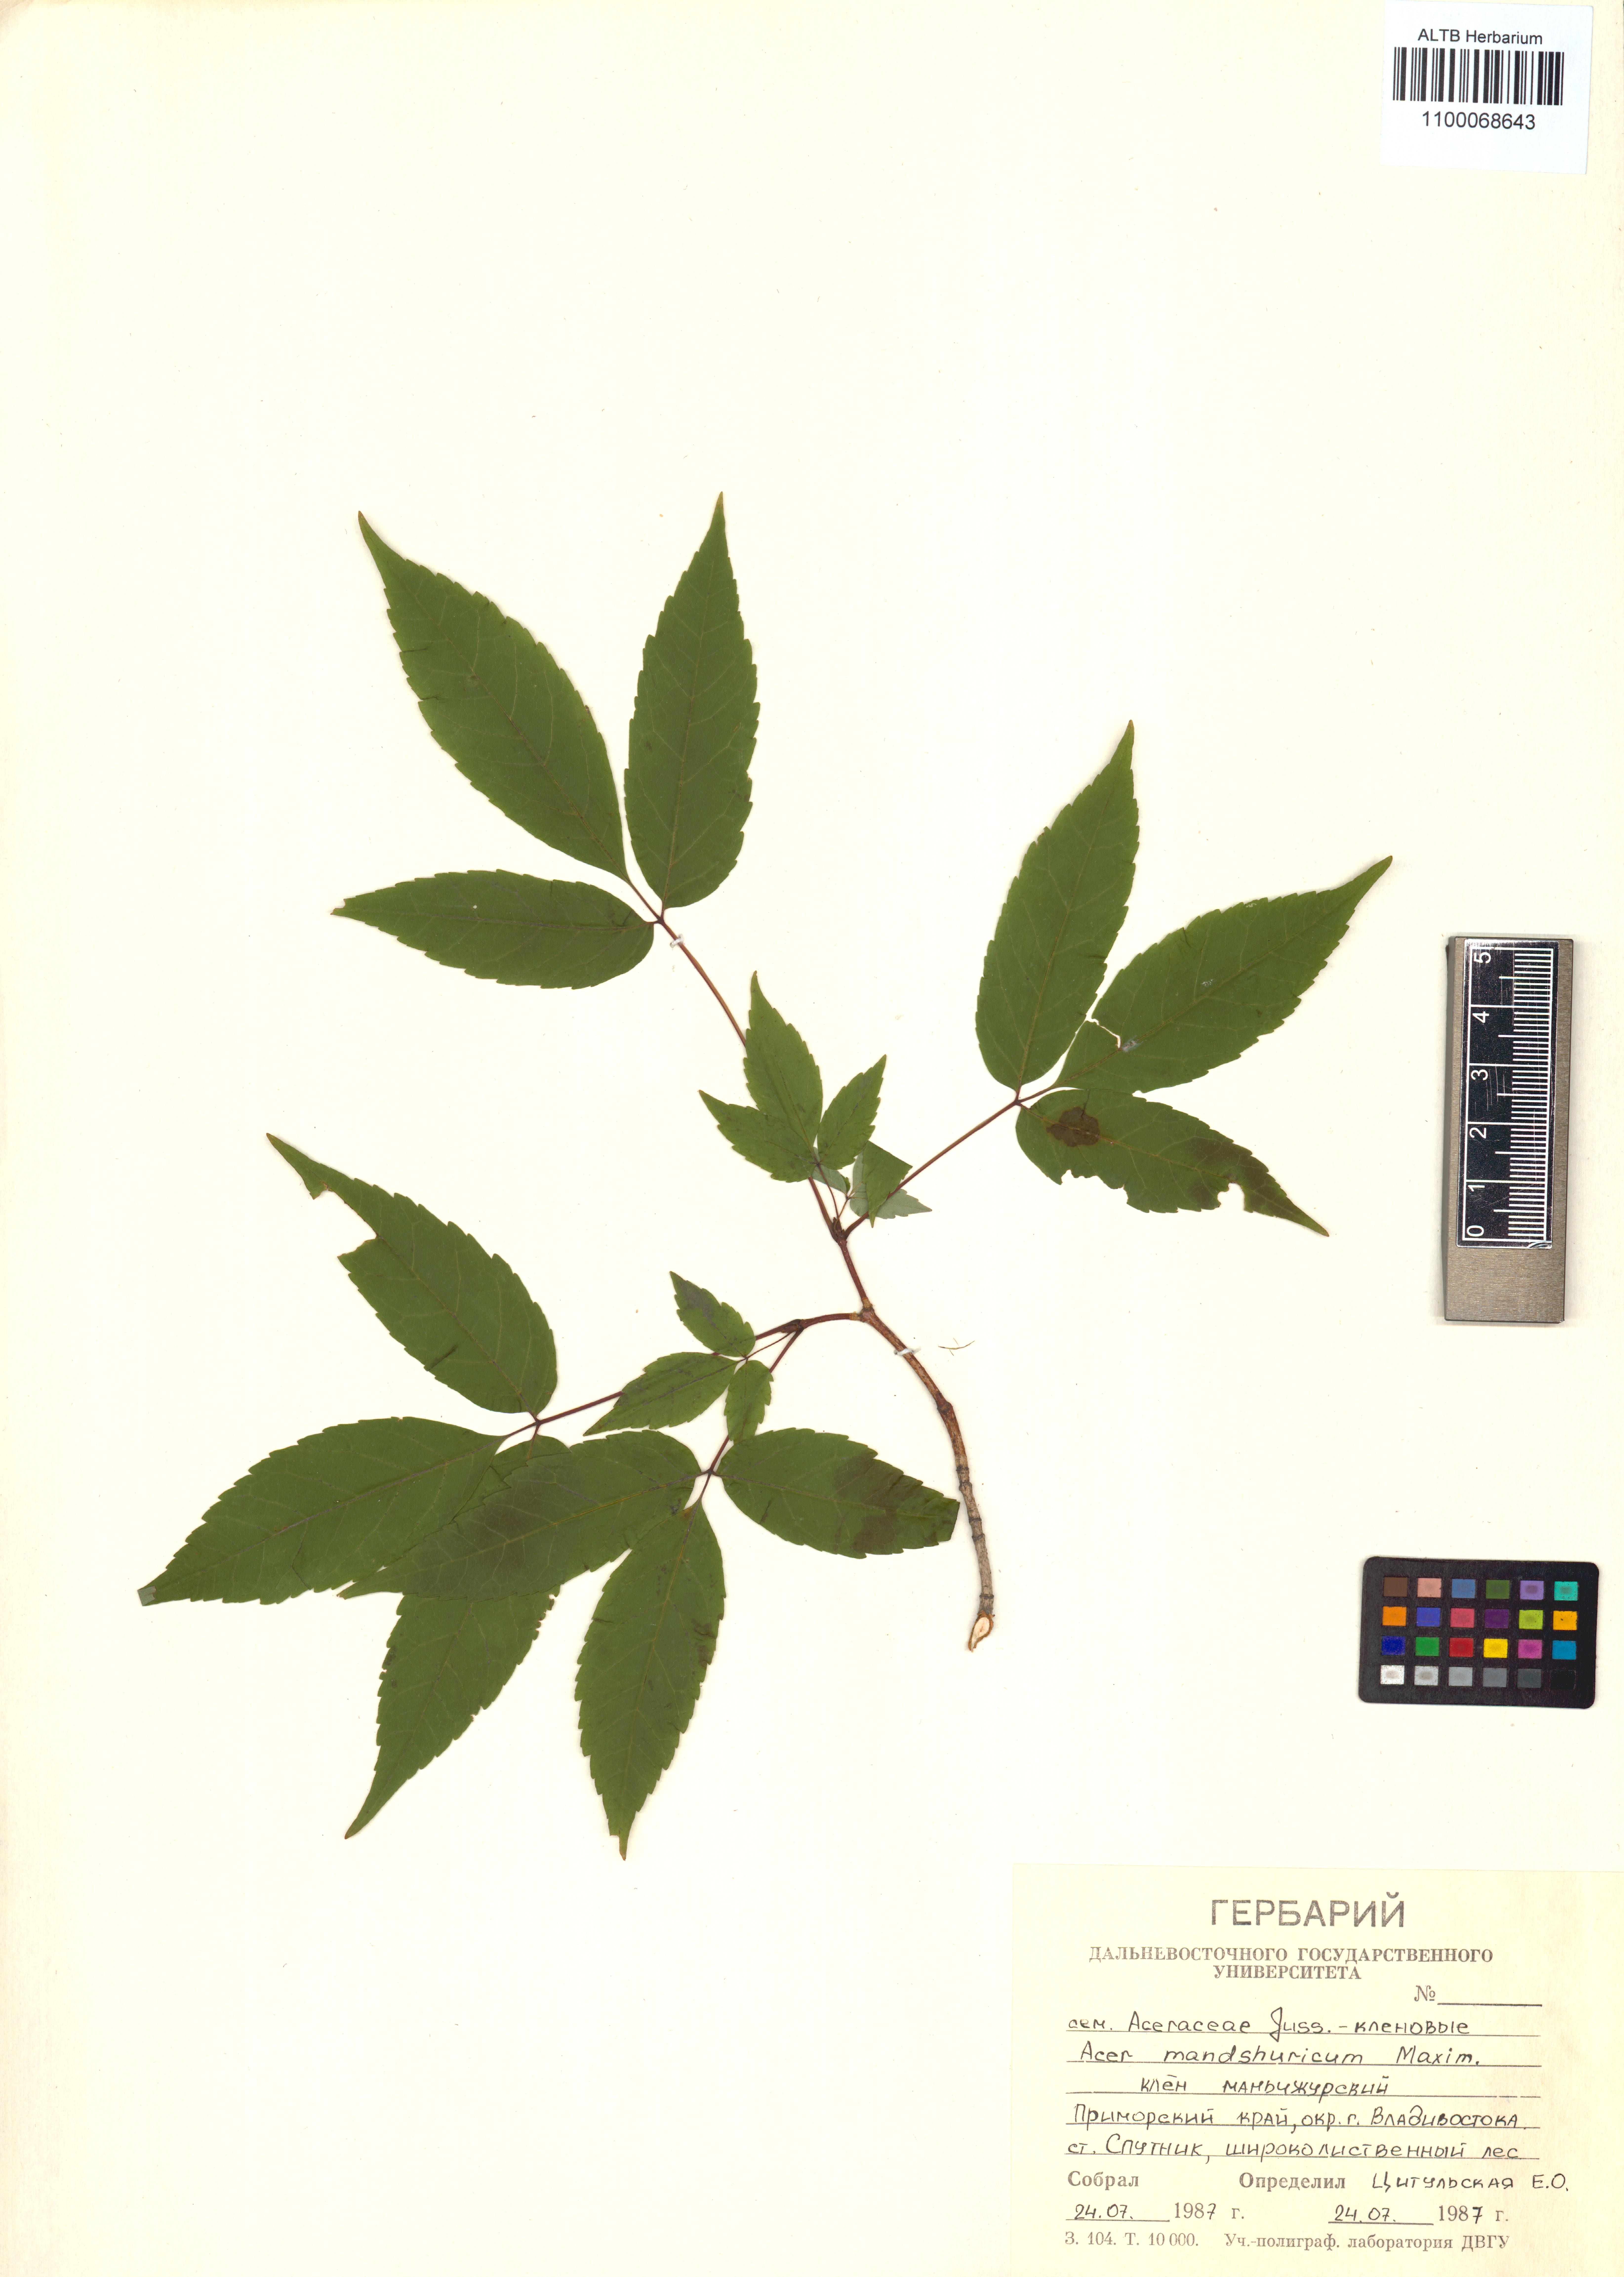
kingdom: Plantae
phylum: Tracheophyta
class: Magnoliopsida
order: Sapindales
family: Sapindaceae
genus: Acer
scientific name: Acer mandshuricum
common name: Manchurian maple
